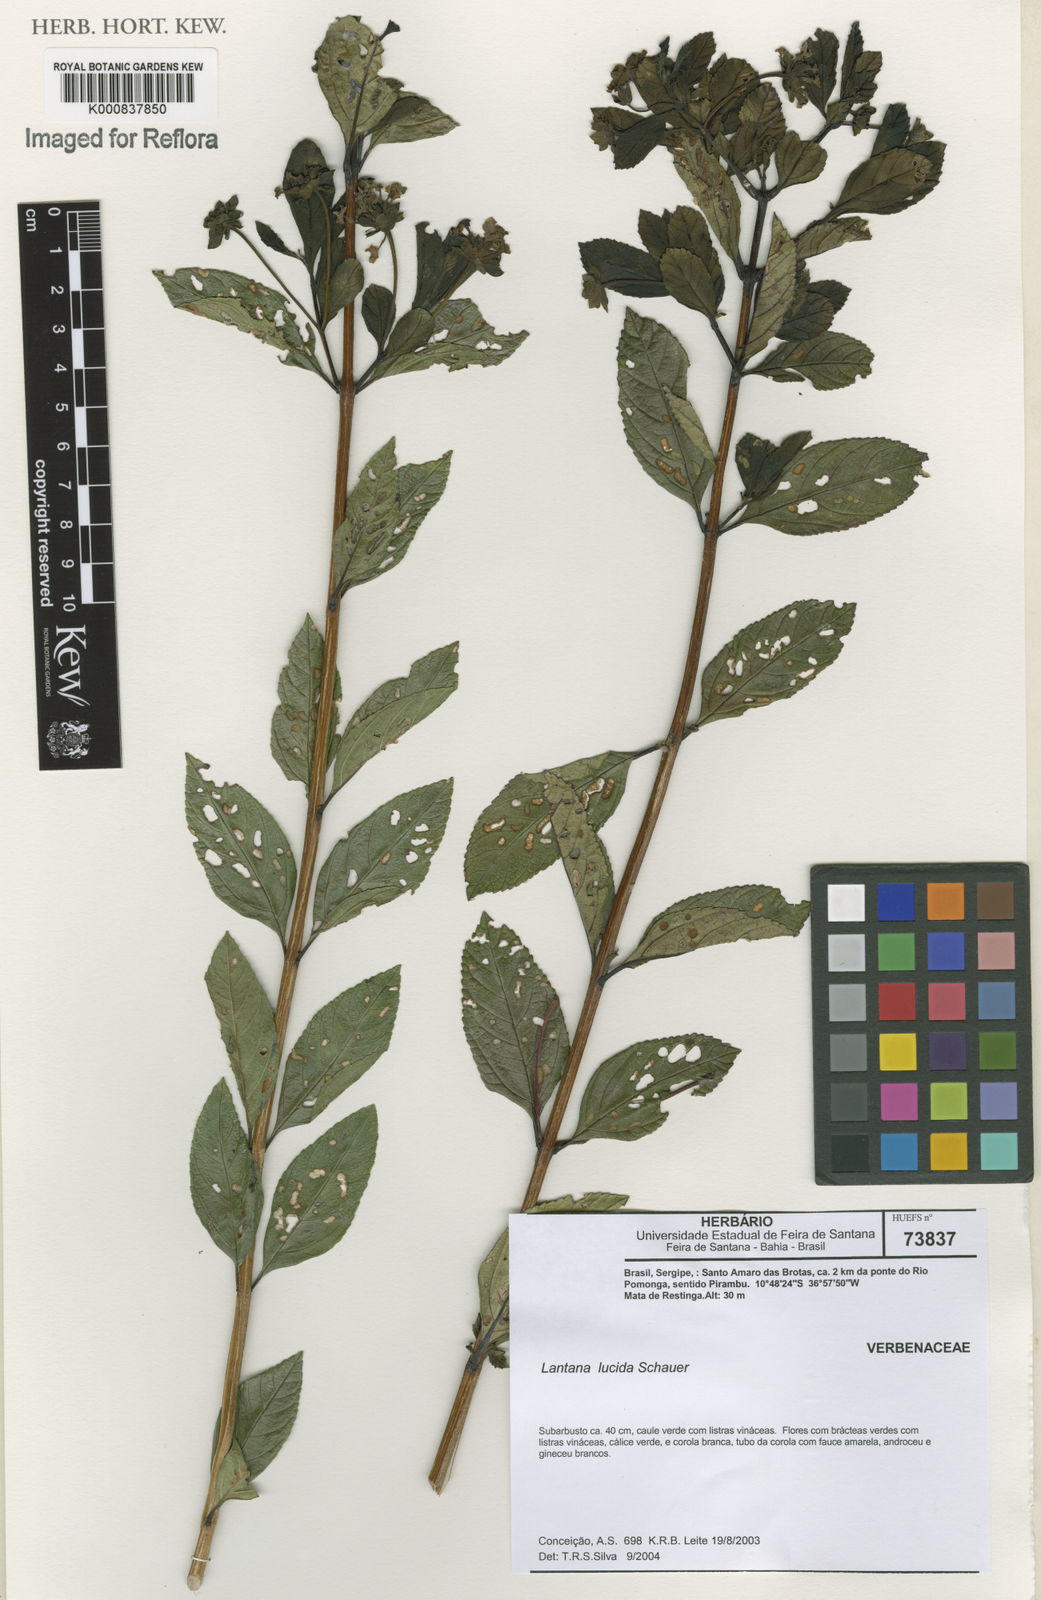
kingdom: Plantae
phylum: Tracheophyta
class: Magnoliopsida
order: Lamiales
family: Verbenaceae
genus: Lantana
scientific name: Lantana lucida
